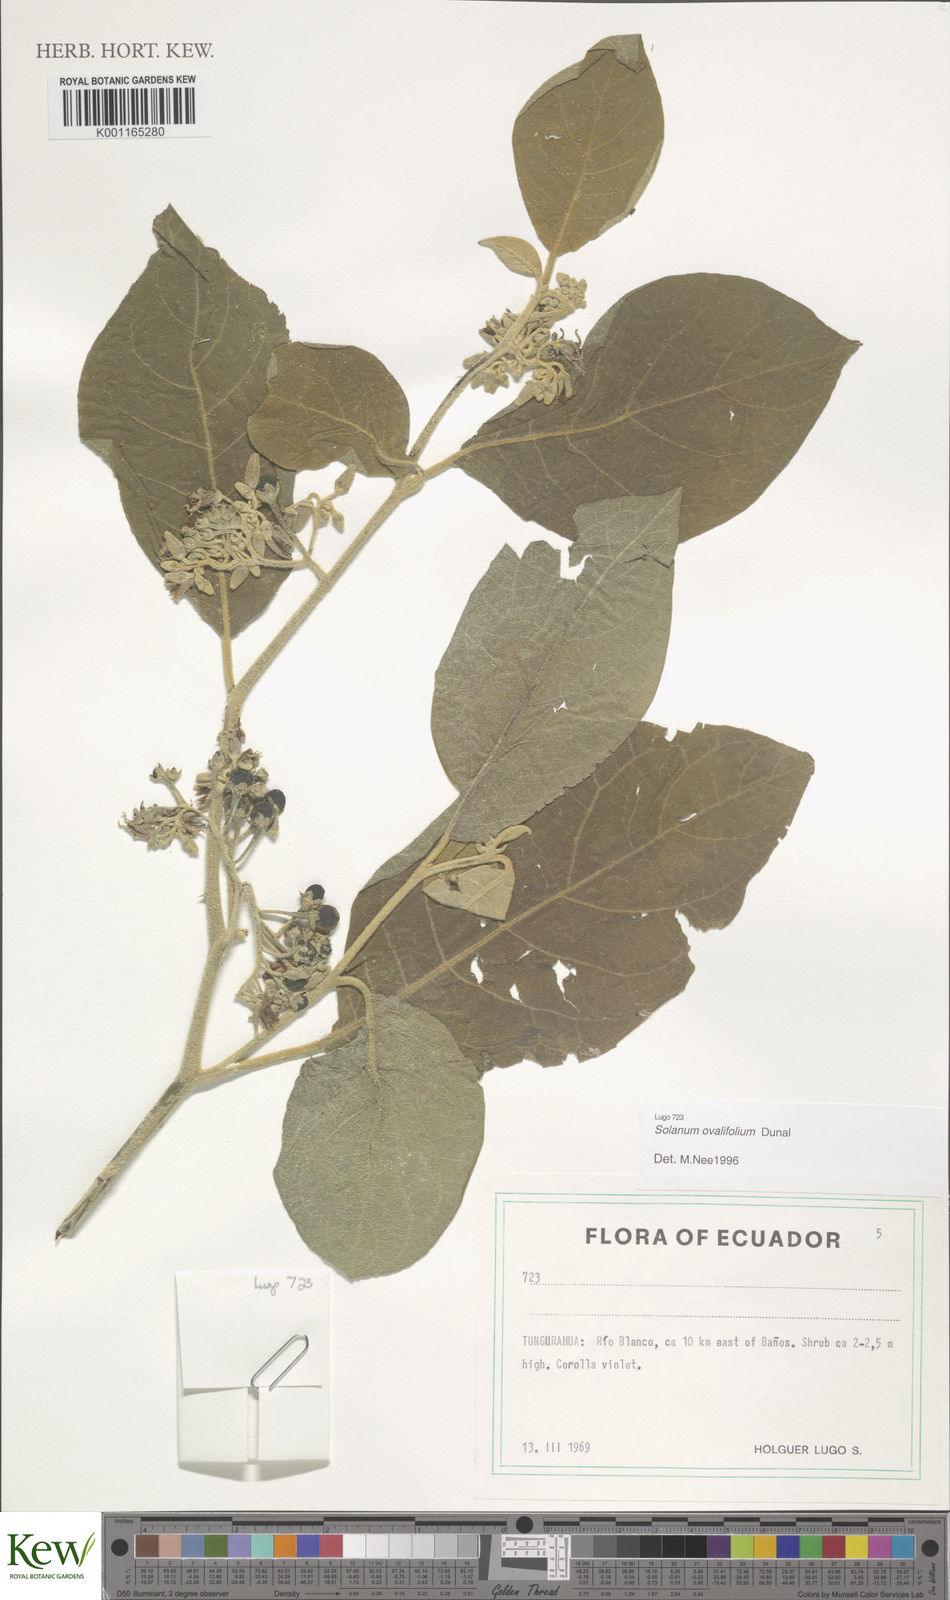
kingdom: Plantae
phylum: Tracheophyta
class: Magnoliopsida
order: Solanales
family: Solanaceae
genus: Solanum
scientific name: Solanum ovalifolium
